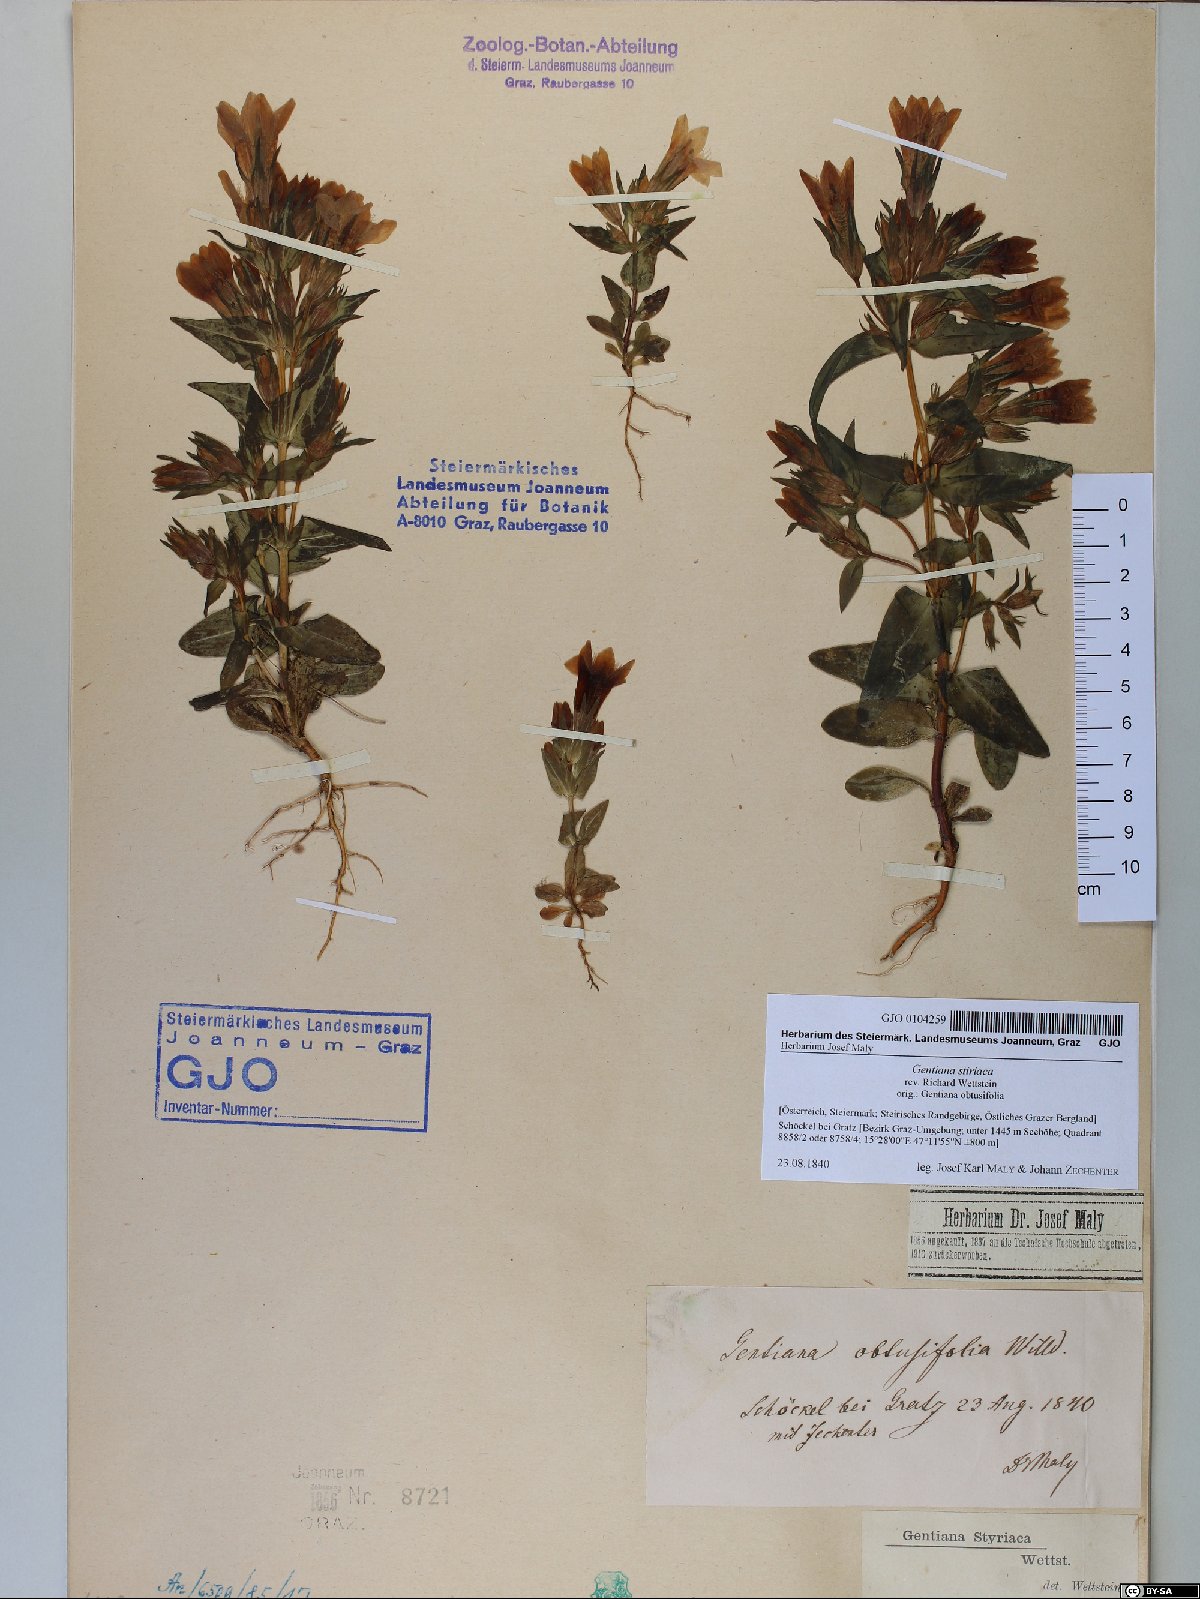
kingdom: Plantae
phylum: Tracheophyta
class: Magnoliopsida
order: Gentianales
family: Gentianaceae
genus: Gentianella
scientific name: Gentianella rhaetica
